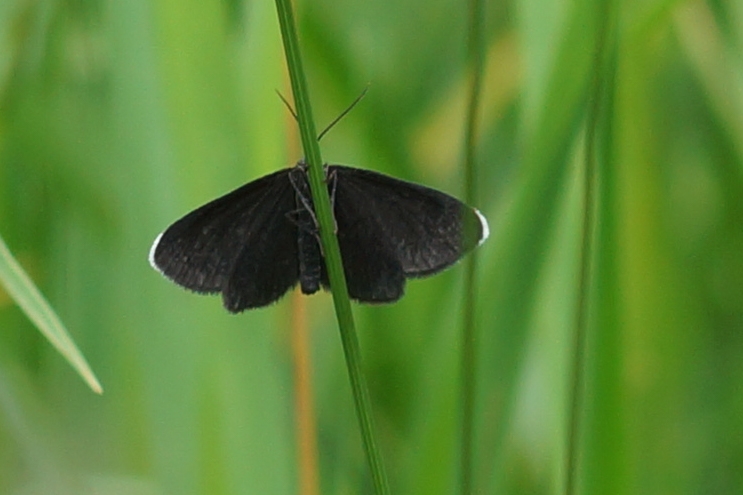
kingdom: Animalia
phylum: Arthropoda
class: Insecta
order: Lepidoptera
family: Geometridae
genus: Odezia
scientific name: Odezia atrata
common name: Sort måler
